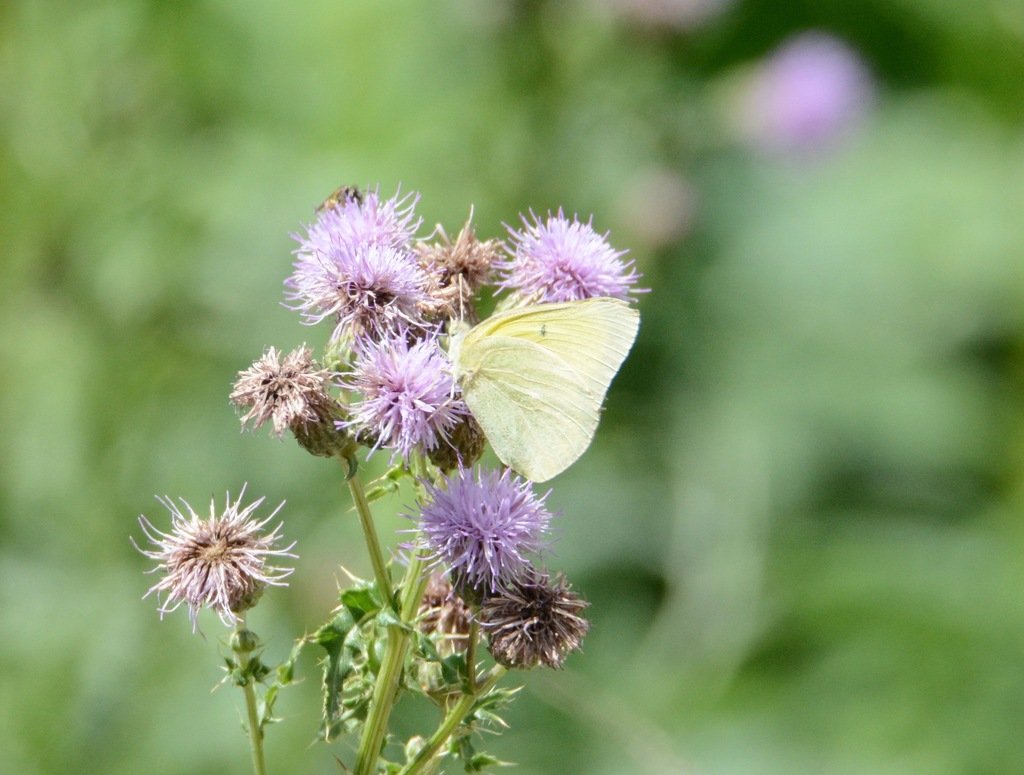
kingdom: Animalia
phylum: Arthropoda
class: Insecta
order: Lepidoptera
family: Pieridae
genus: Colias
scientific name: Colias philodice
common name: Clouded Sulphur
